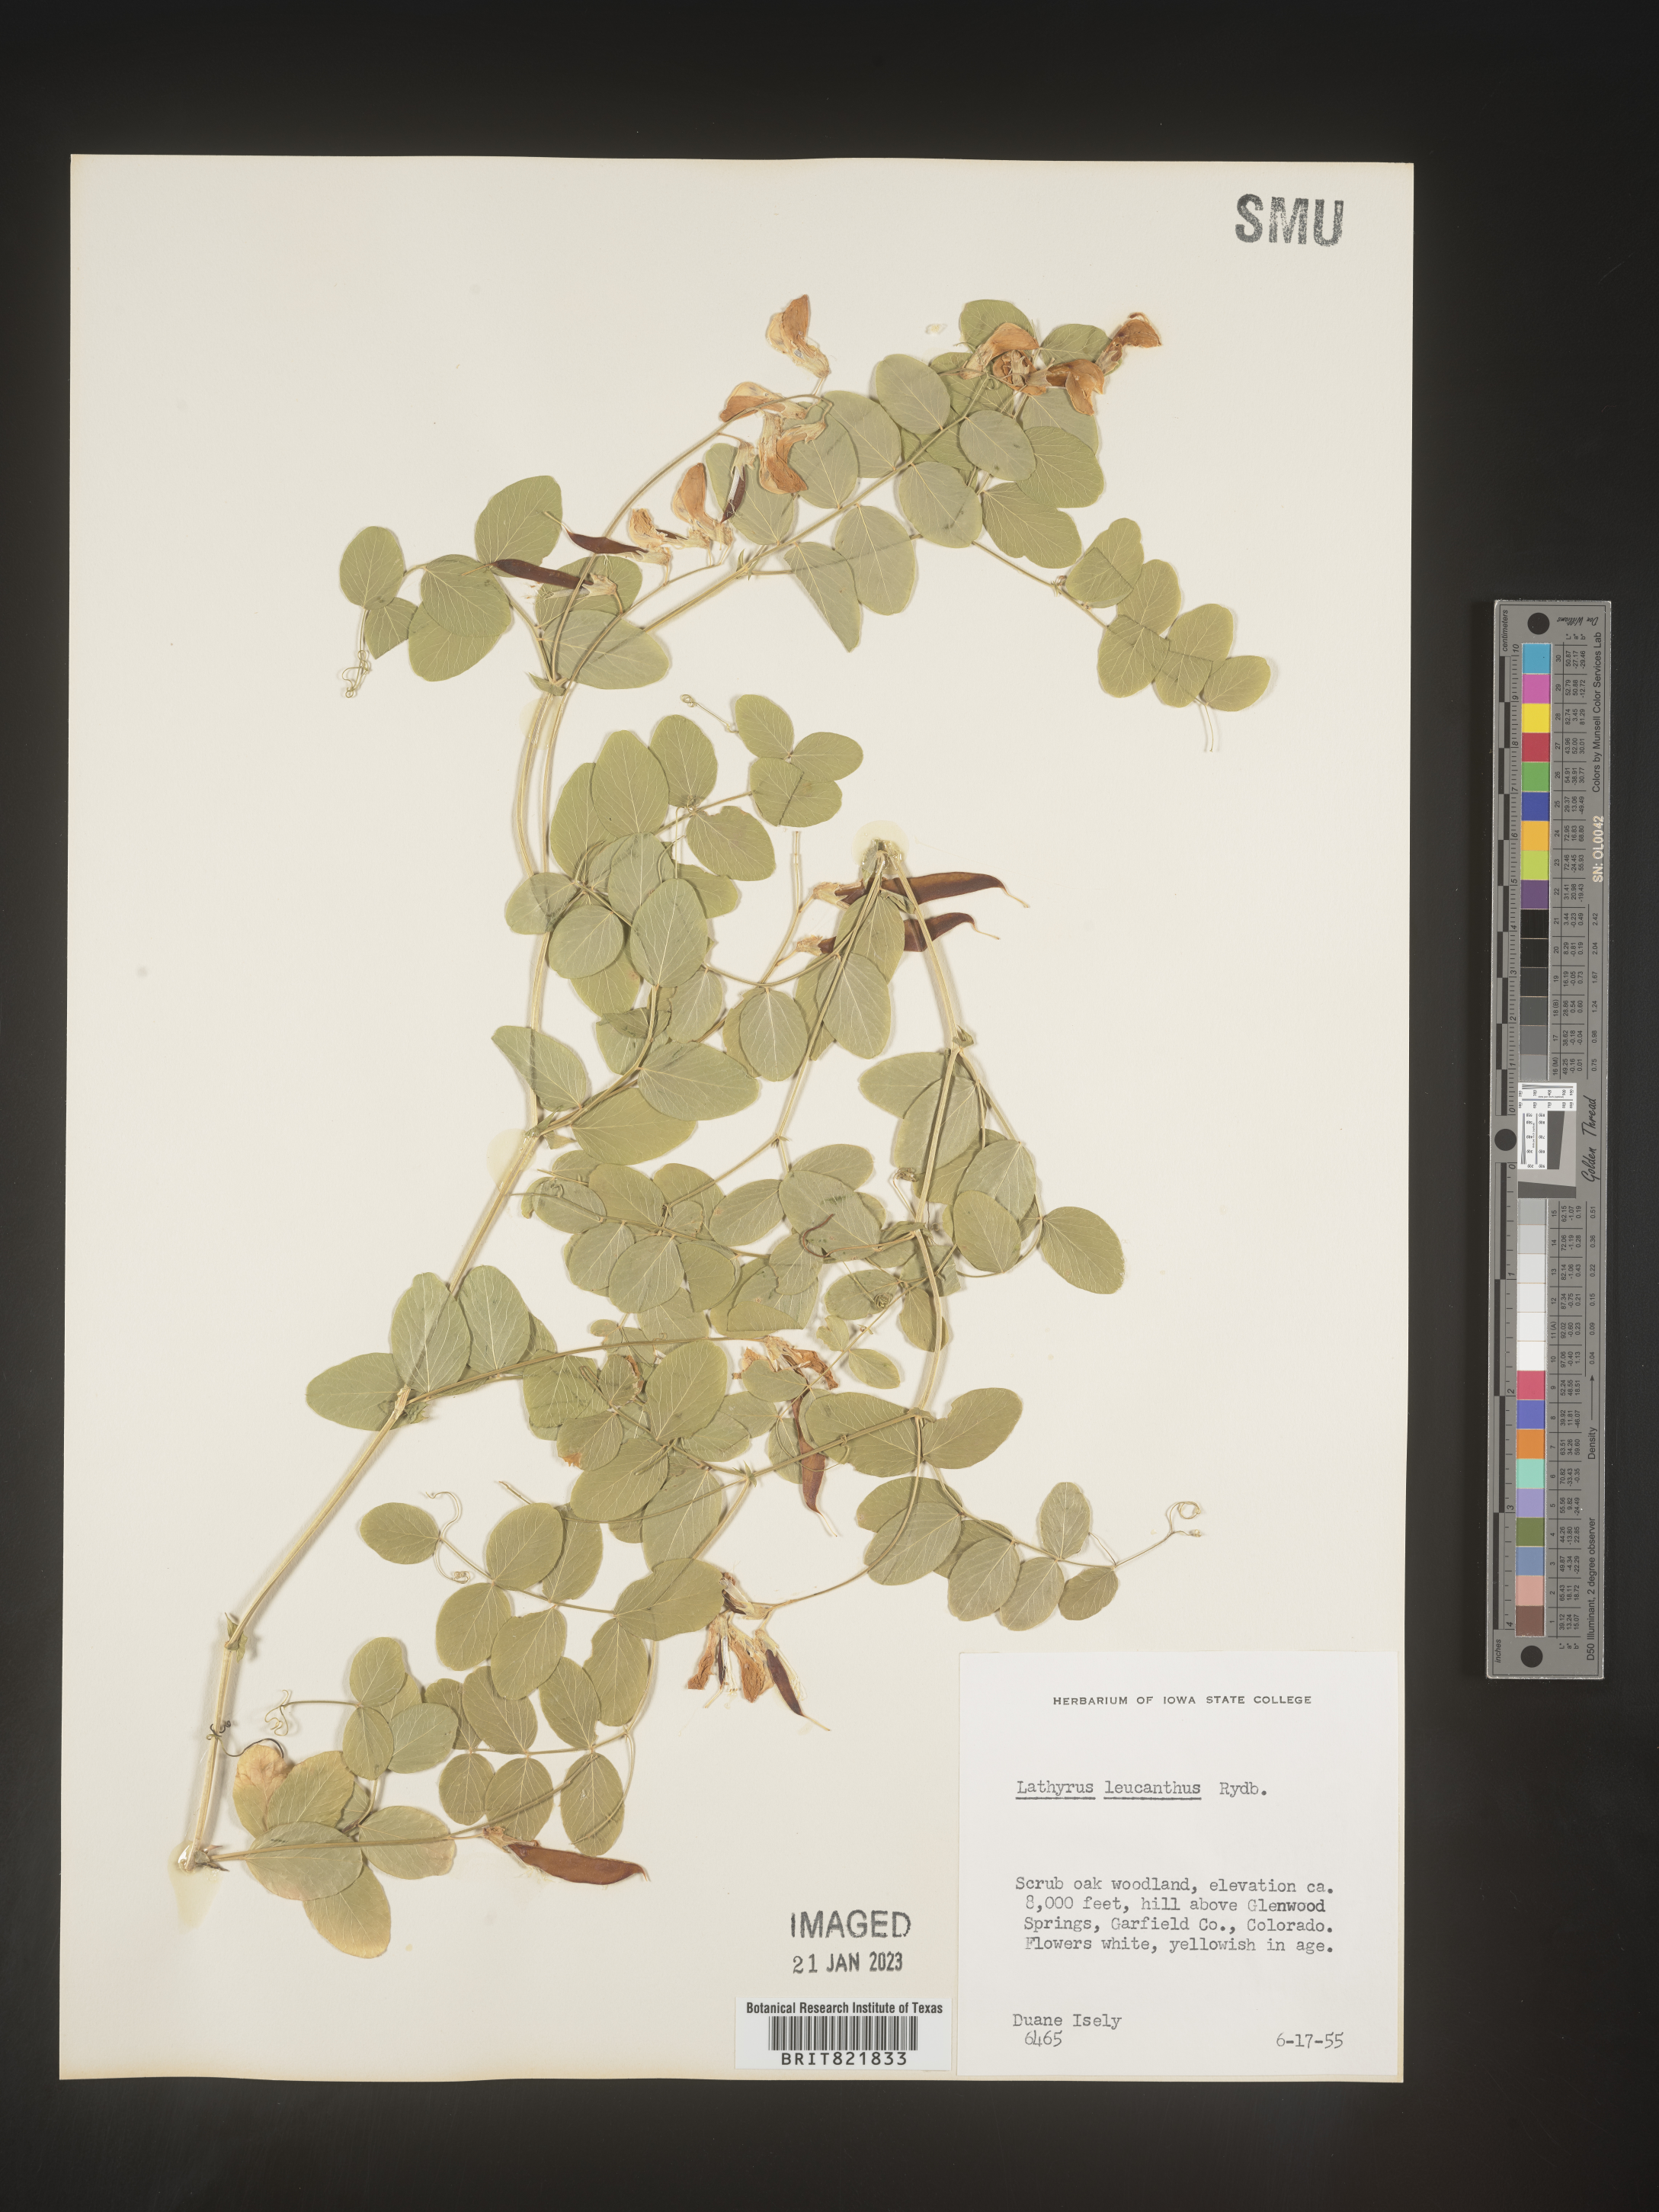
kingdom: Plantae
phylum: Tracheophyta
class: Magnoliopsida
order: Fabales
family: Fabaceae
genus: Lathyrus
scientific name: Lathyrus
